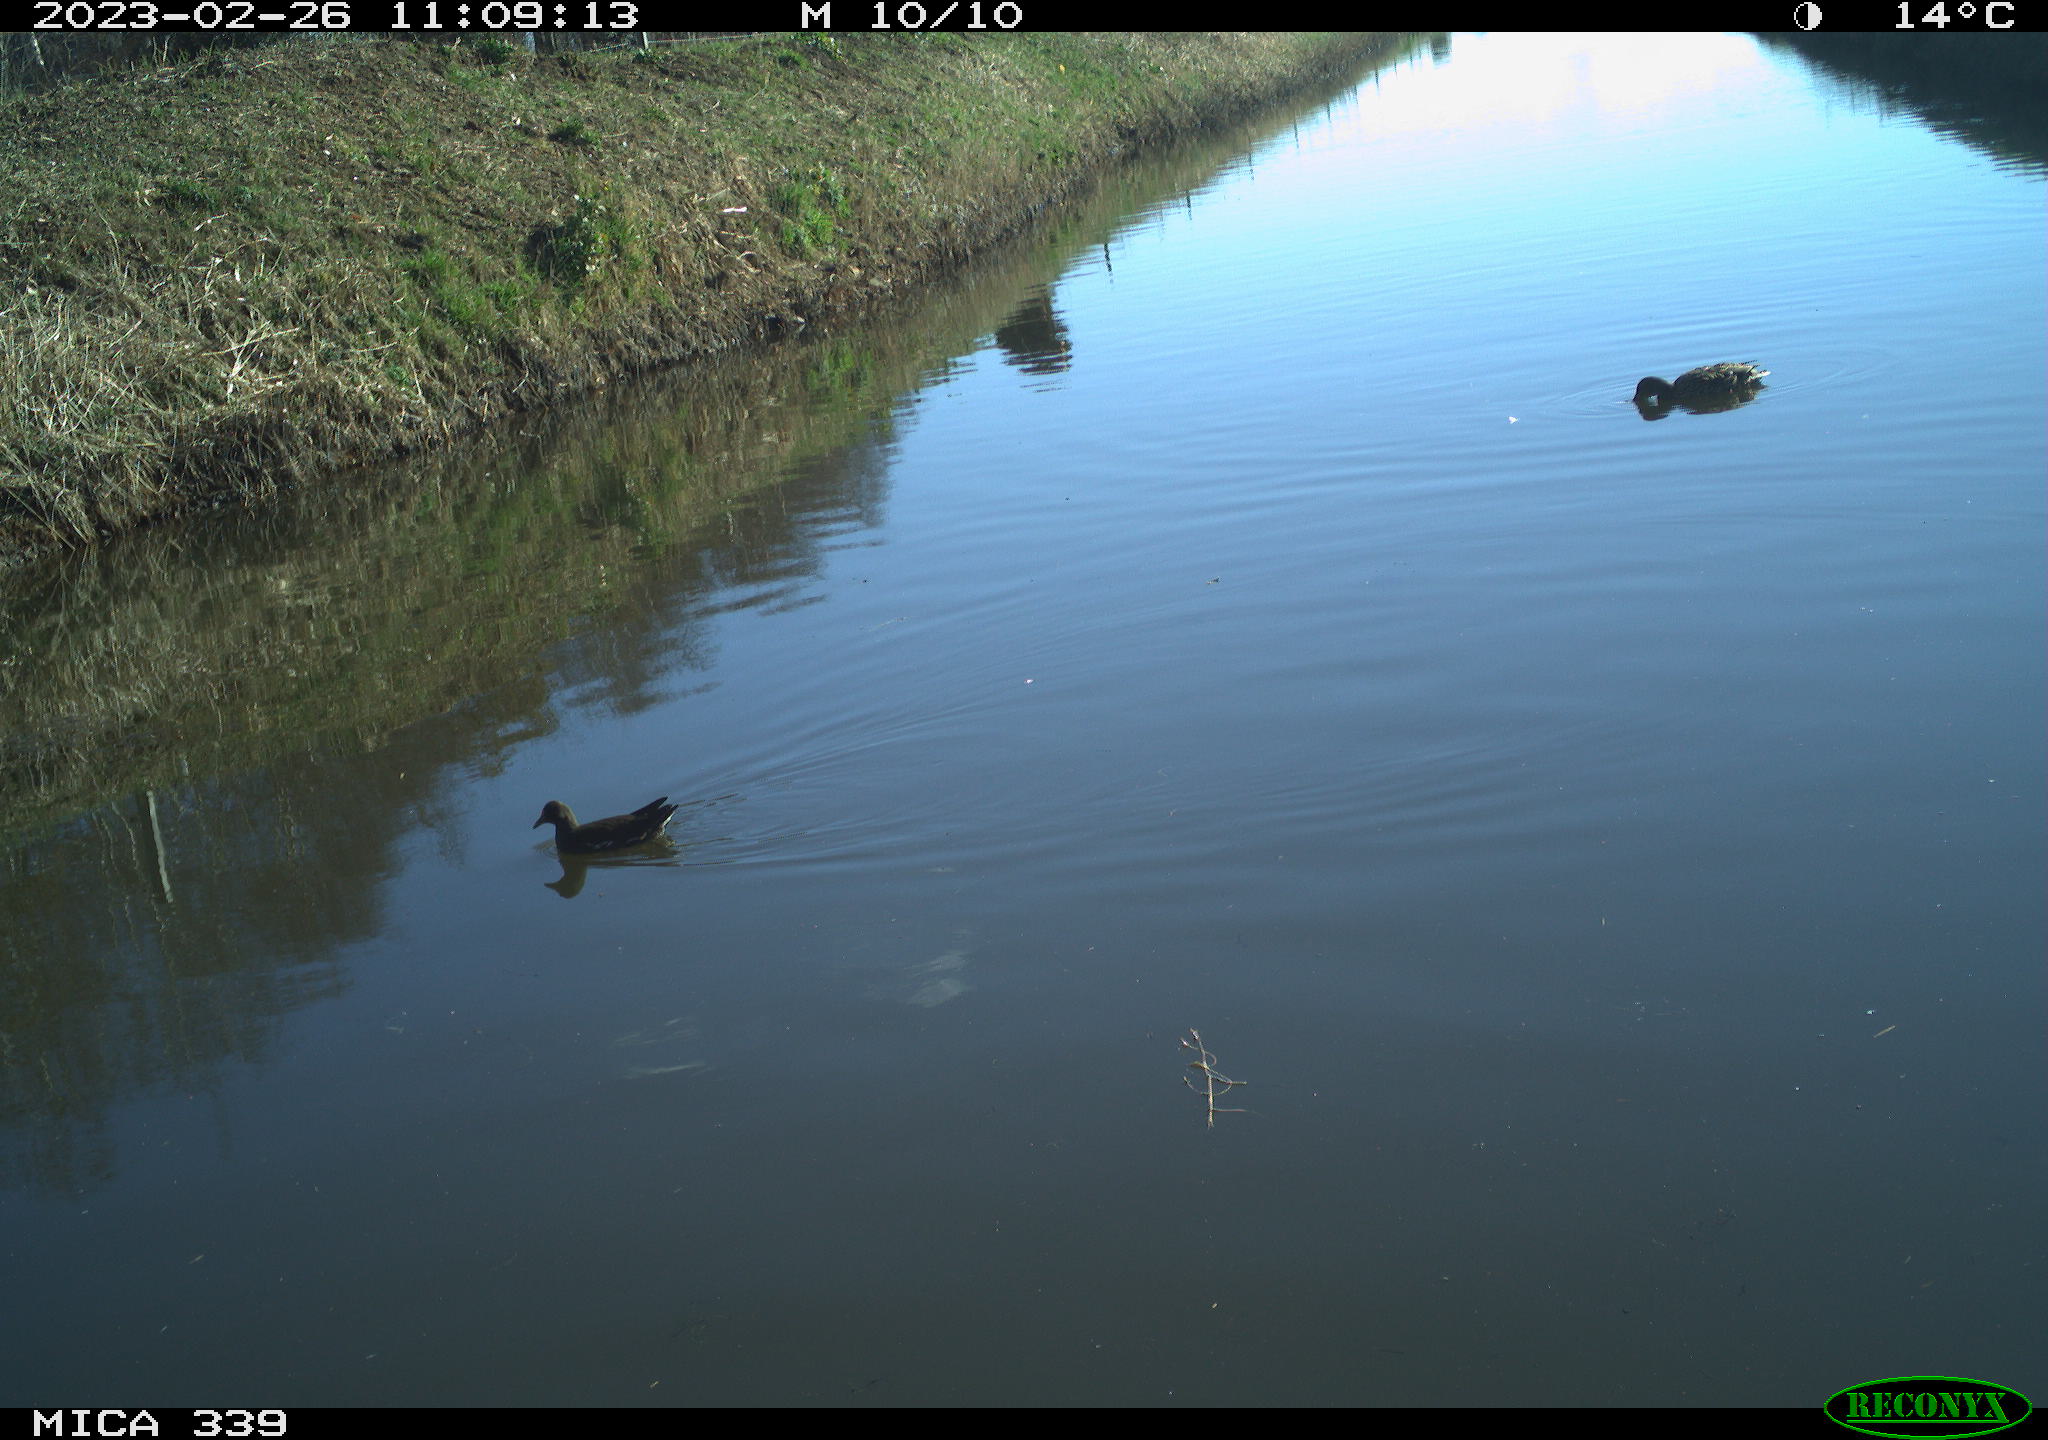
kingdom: Animalia
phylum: Chordata
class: Aves
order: Gruiformes
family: Rallidae
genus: Gallinula
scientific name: Gallinula chloropus
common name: Common moorhen
